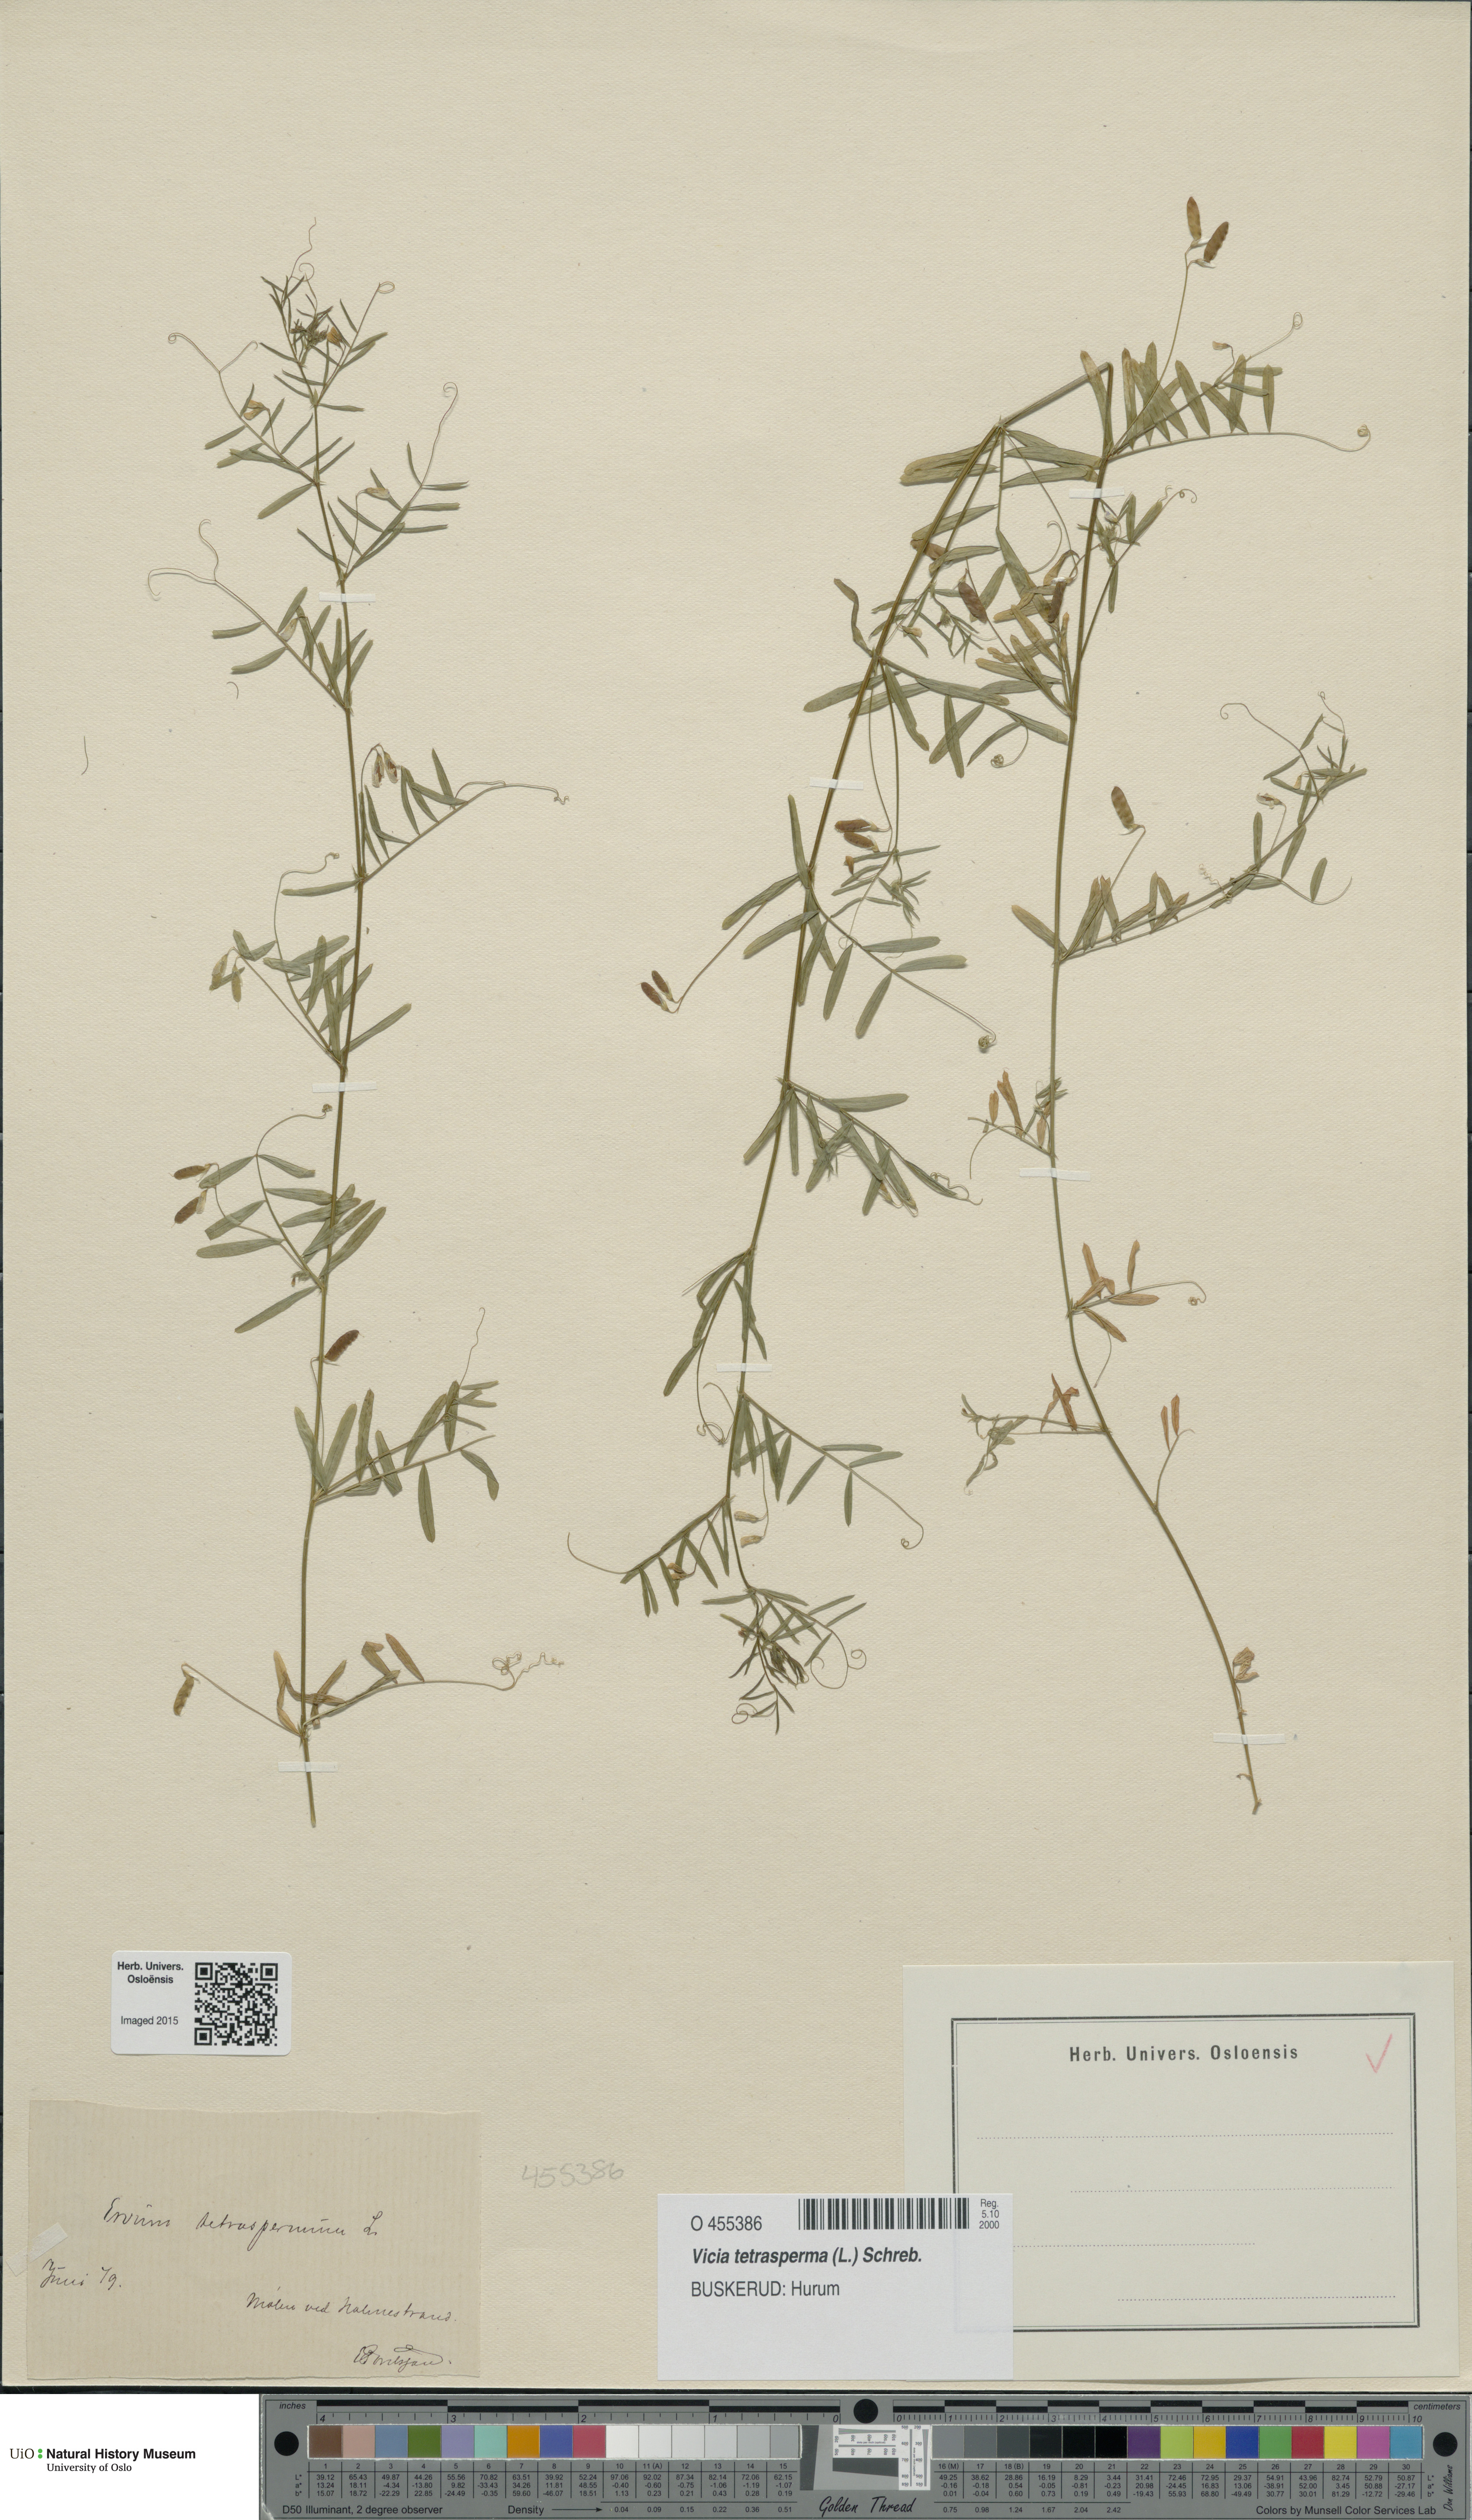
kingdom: Plantae
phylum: Tracheophyta
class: Magnoliopsida
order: Fabales
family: Fabaceae
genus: Vicia
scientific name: Vicia tetrasperma
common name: Smooth tare
